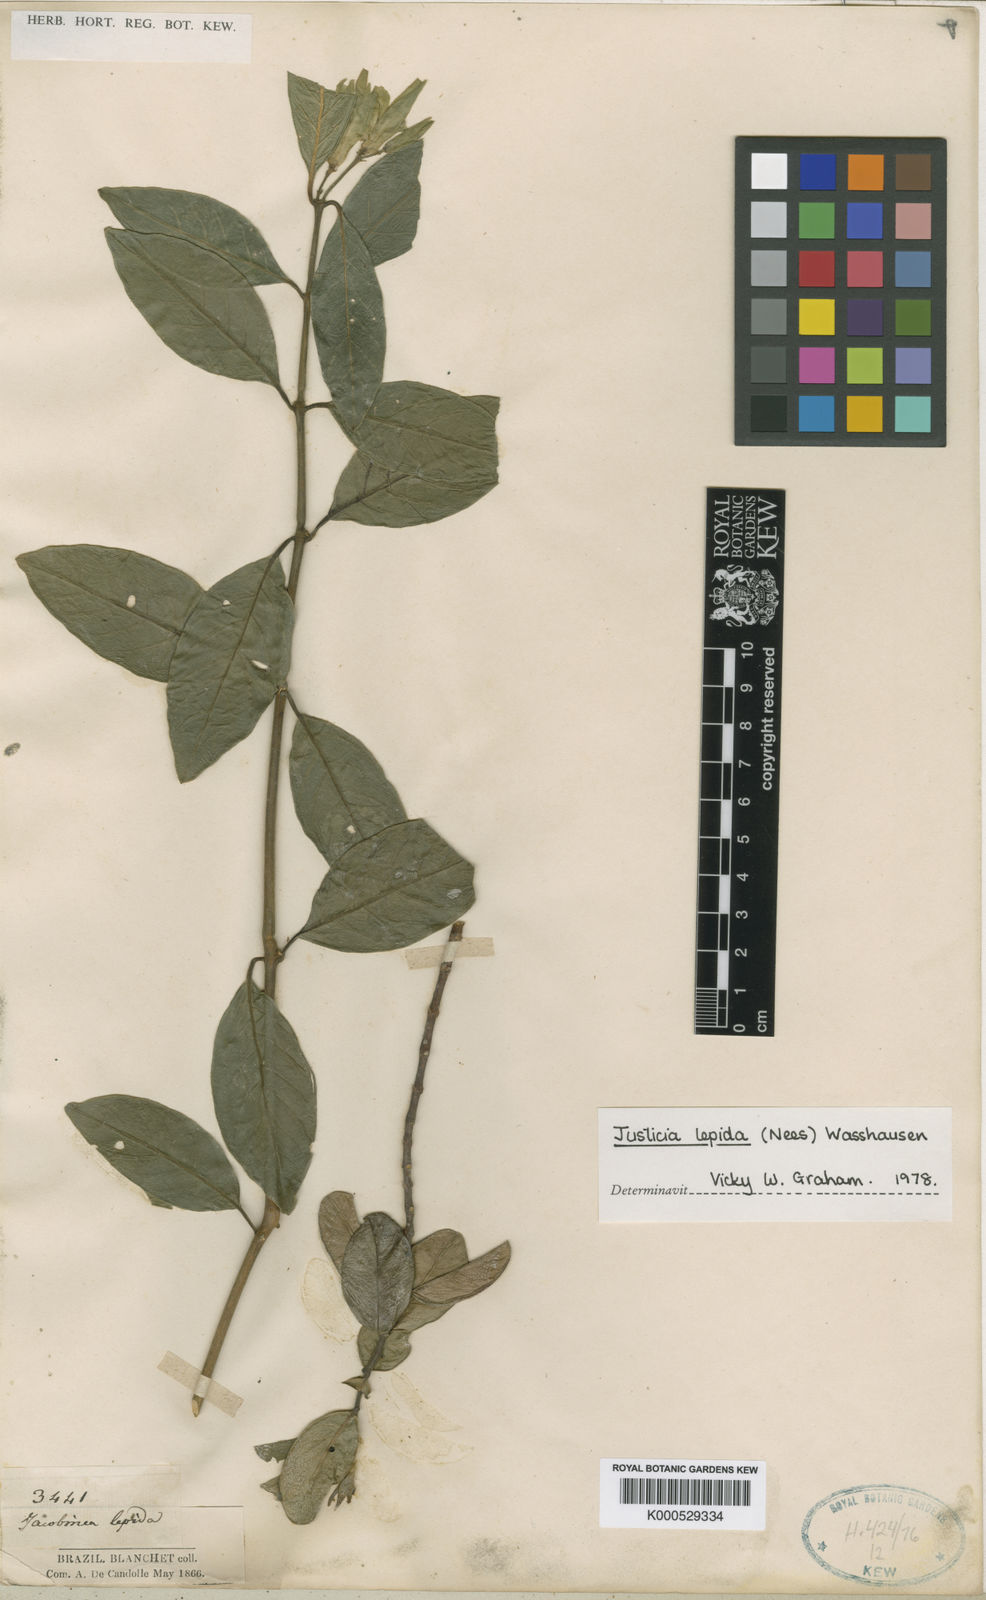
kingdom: Plantae
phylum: Tracheophyta
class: Magnoliopsida
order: Lamiales
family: Acanthaceae
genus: Justicia
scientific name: Justicia lepida
